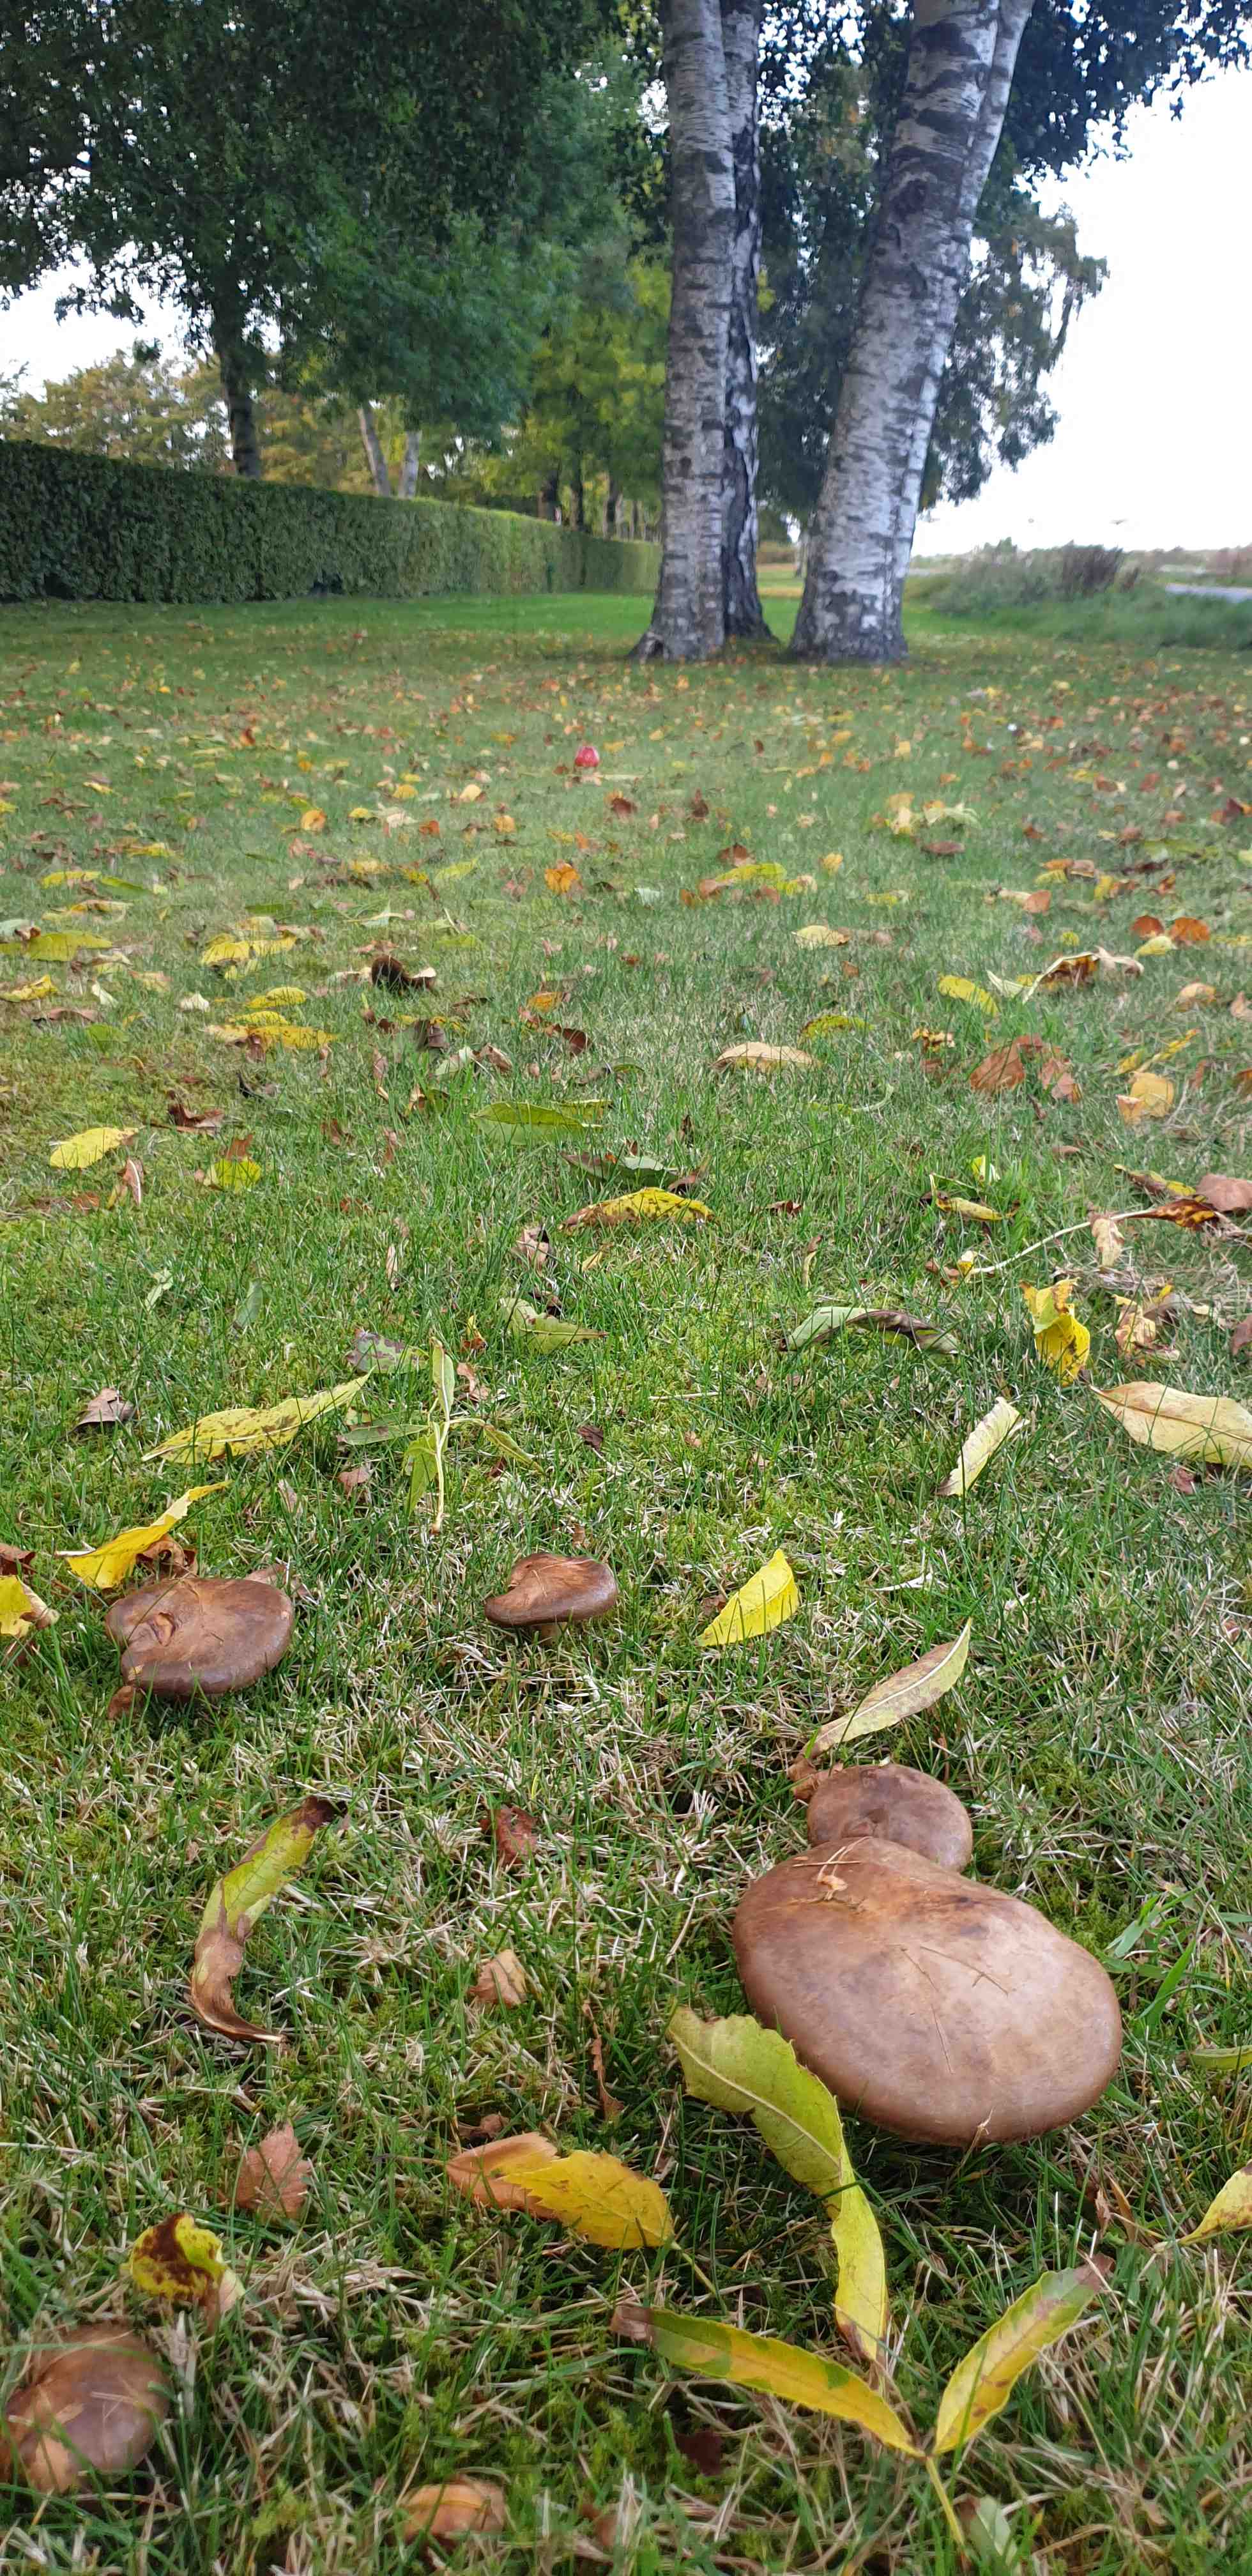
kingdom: Fungi
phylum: Basidiomycota
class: Agaricomycetes
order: Boletales
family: Paxillaceae
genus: Paxillus
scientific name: Paxillus involutus
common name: almindelig netbladhat
